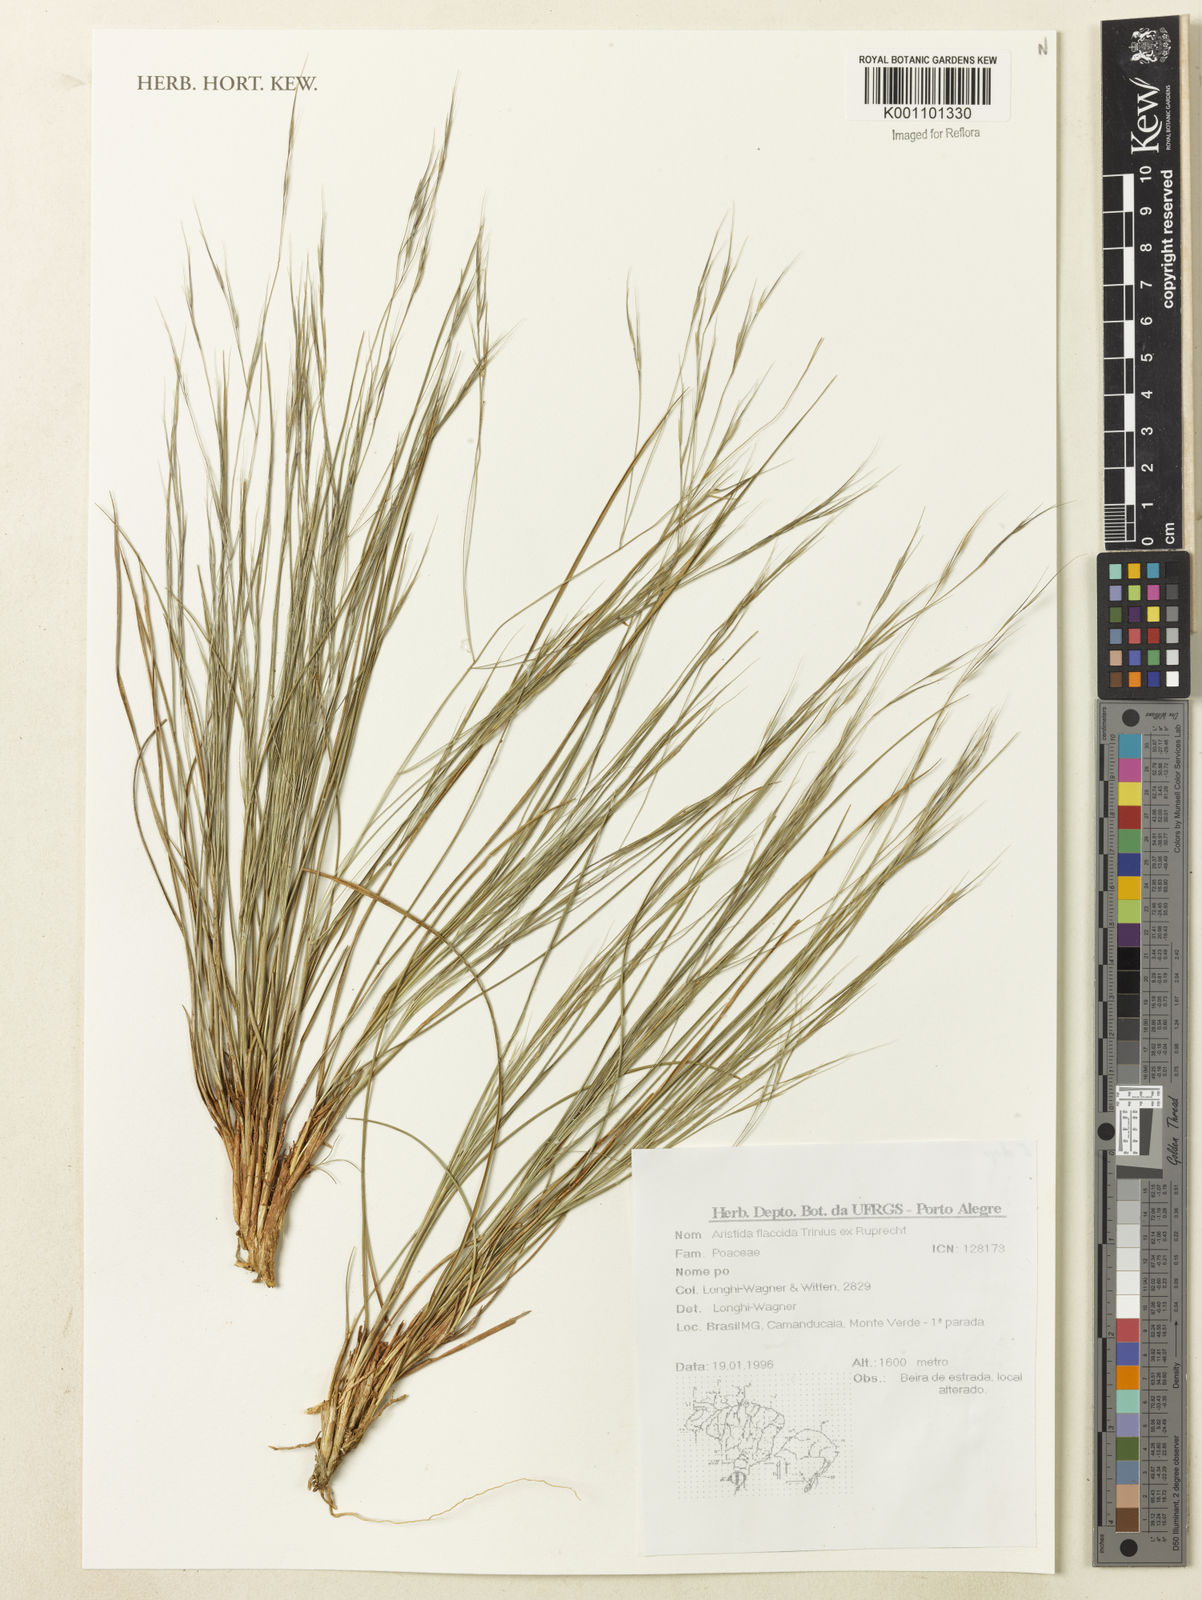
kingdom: Plantae
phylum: Tracheophyta
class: Liliopsida
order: Poales
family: Poaceae
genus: Aristida
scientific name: Aristida flaccida
